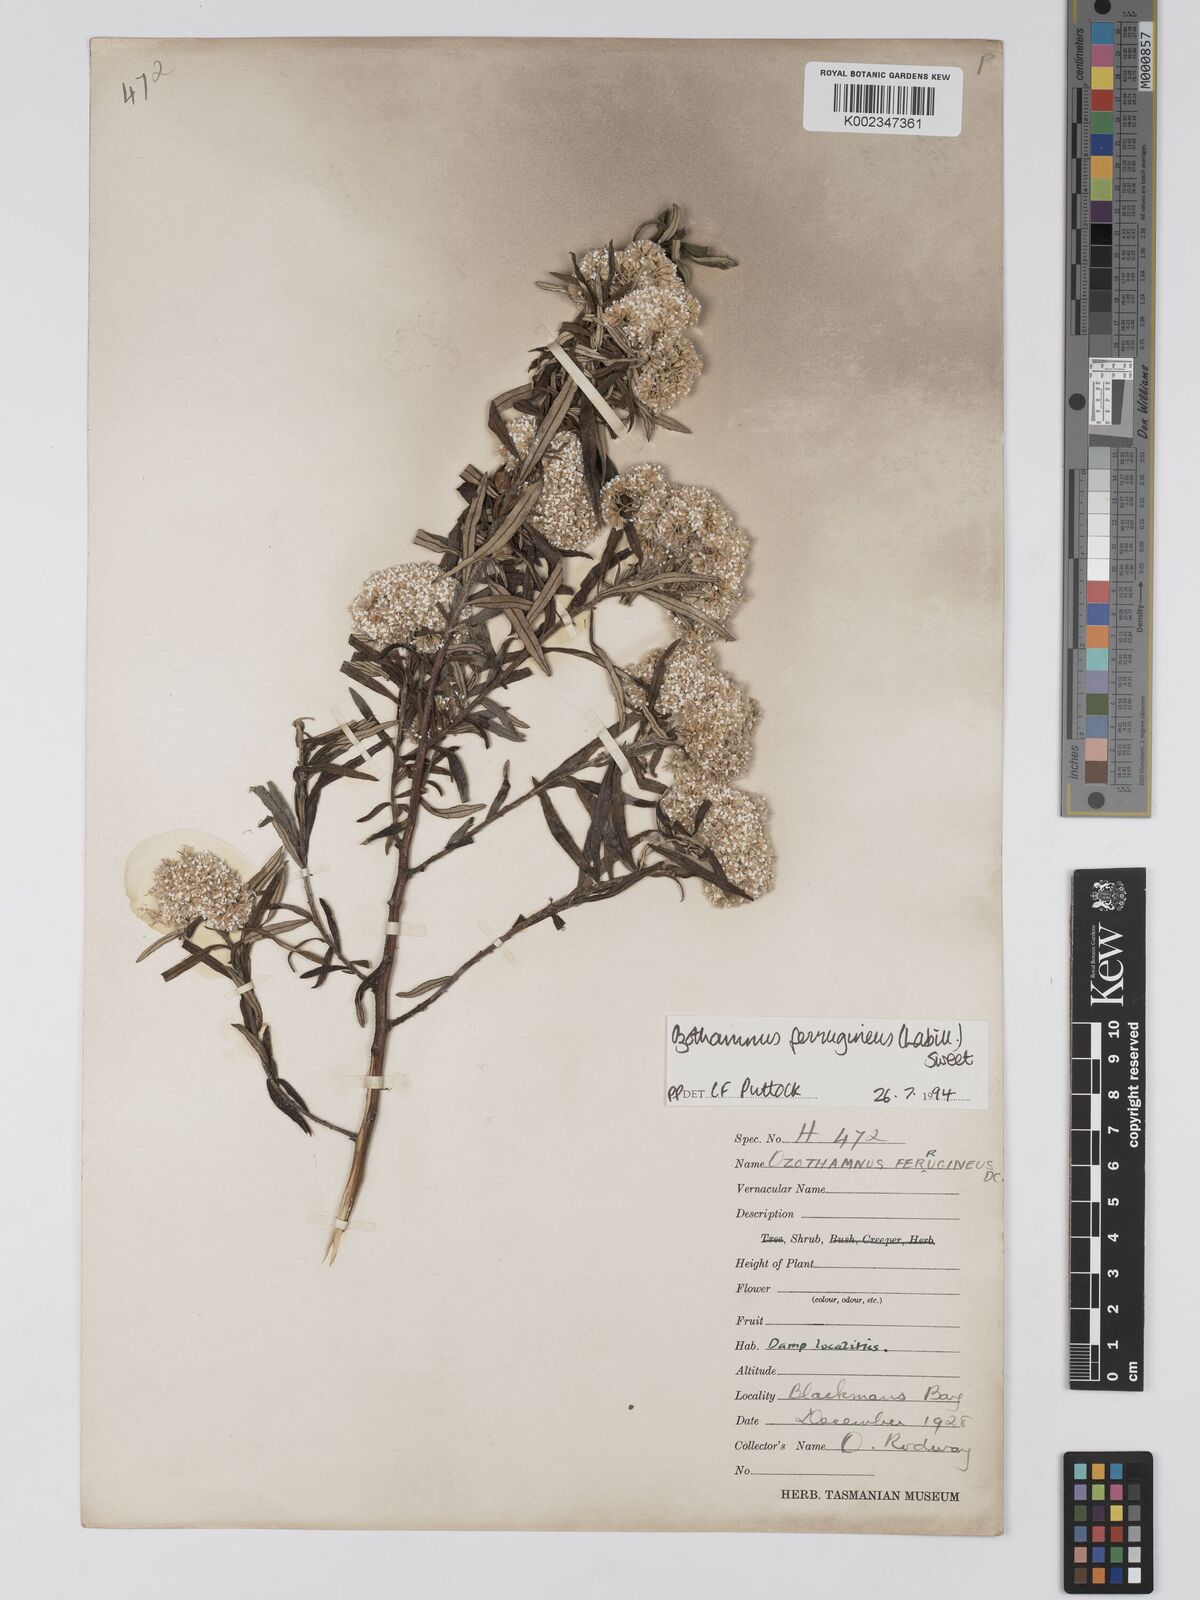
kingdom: Plantae
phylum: Tracheophyta
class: Magnoliopsida
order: Asterales
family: Asteraceae
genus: Ozothamnus
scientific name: Ozothamnus argophyllus
